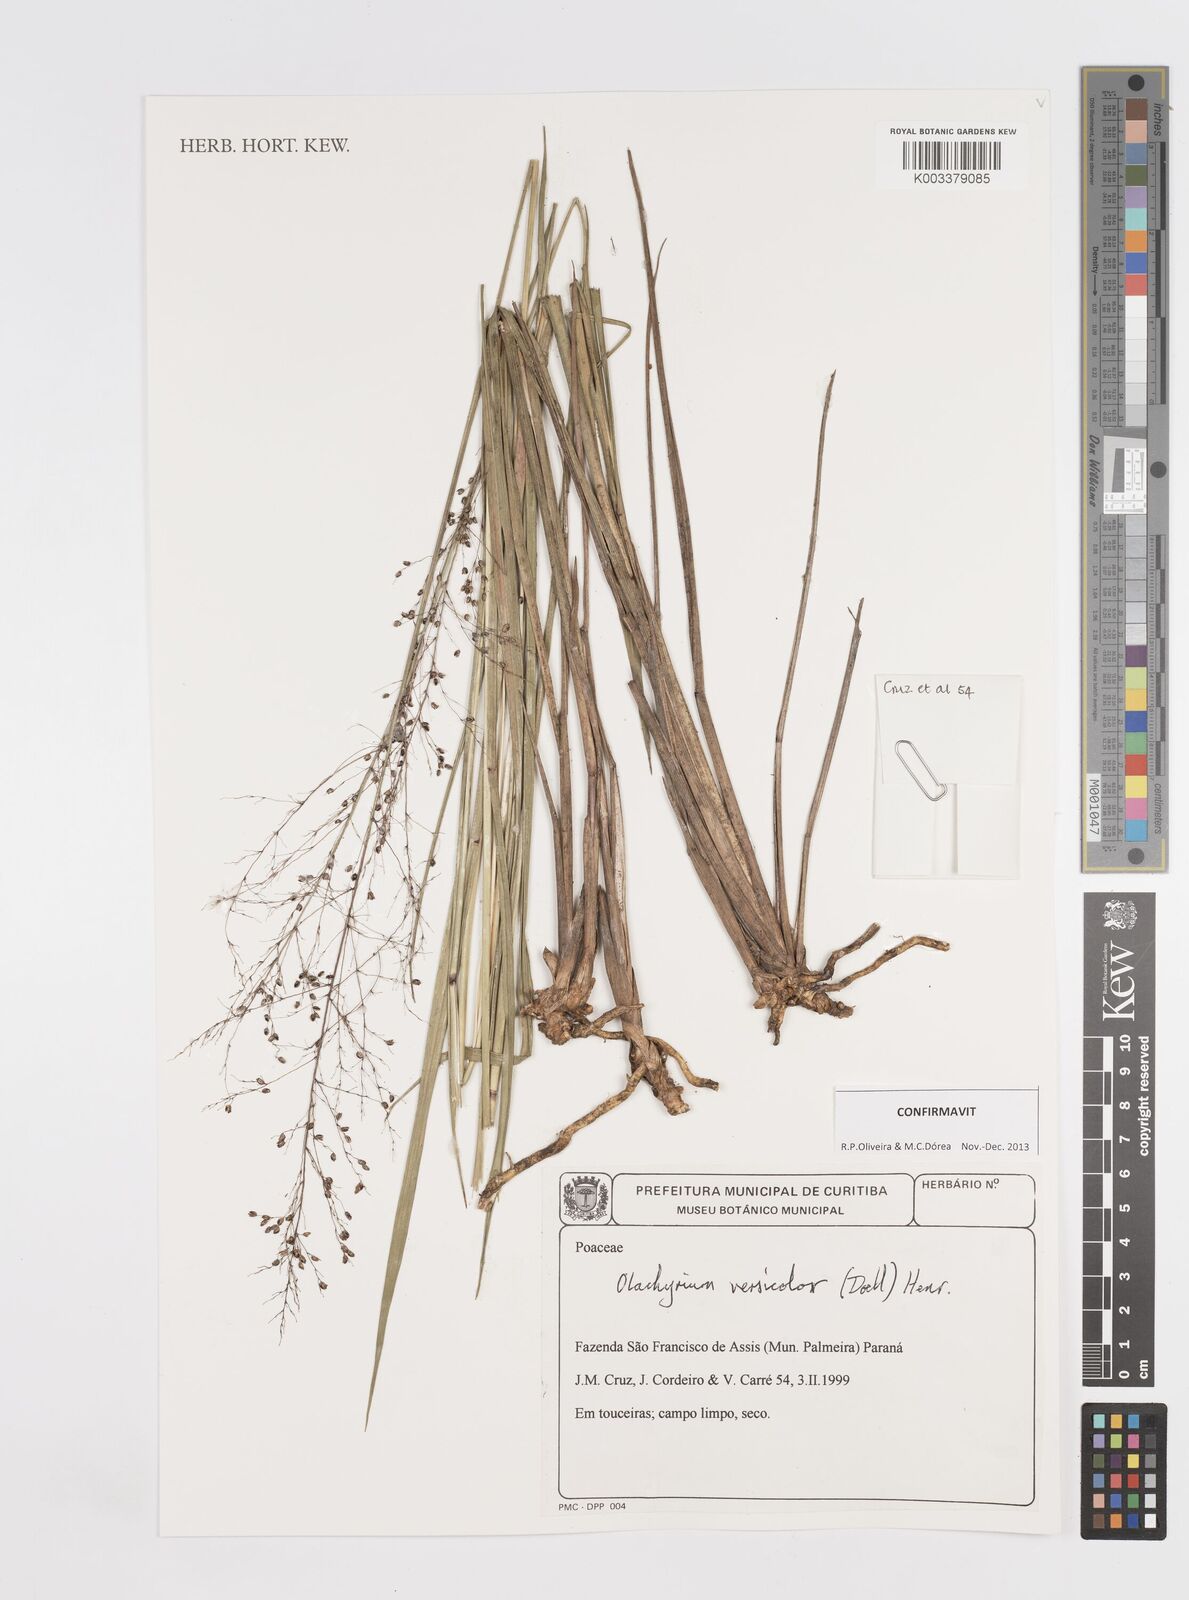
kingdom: Plantae
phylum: Tracheophyta
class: Liliopsida
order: Poales
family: Poaceae
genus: Otachyrium
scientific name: Otachyrium versicolor
